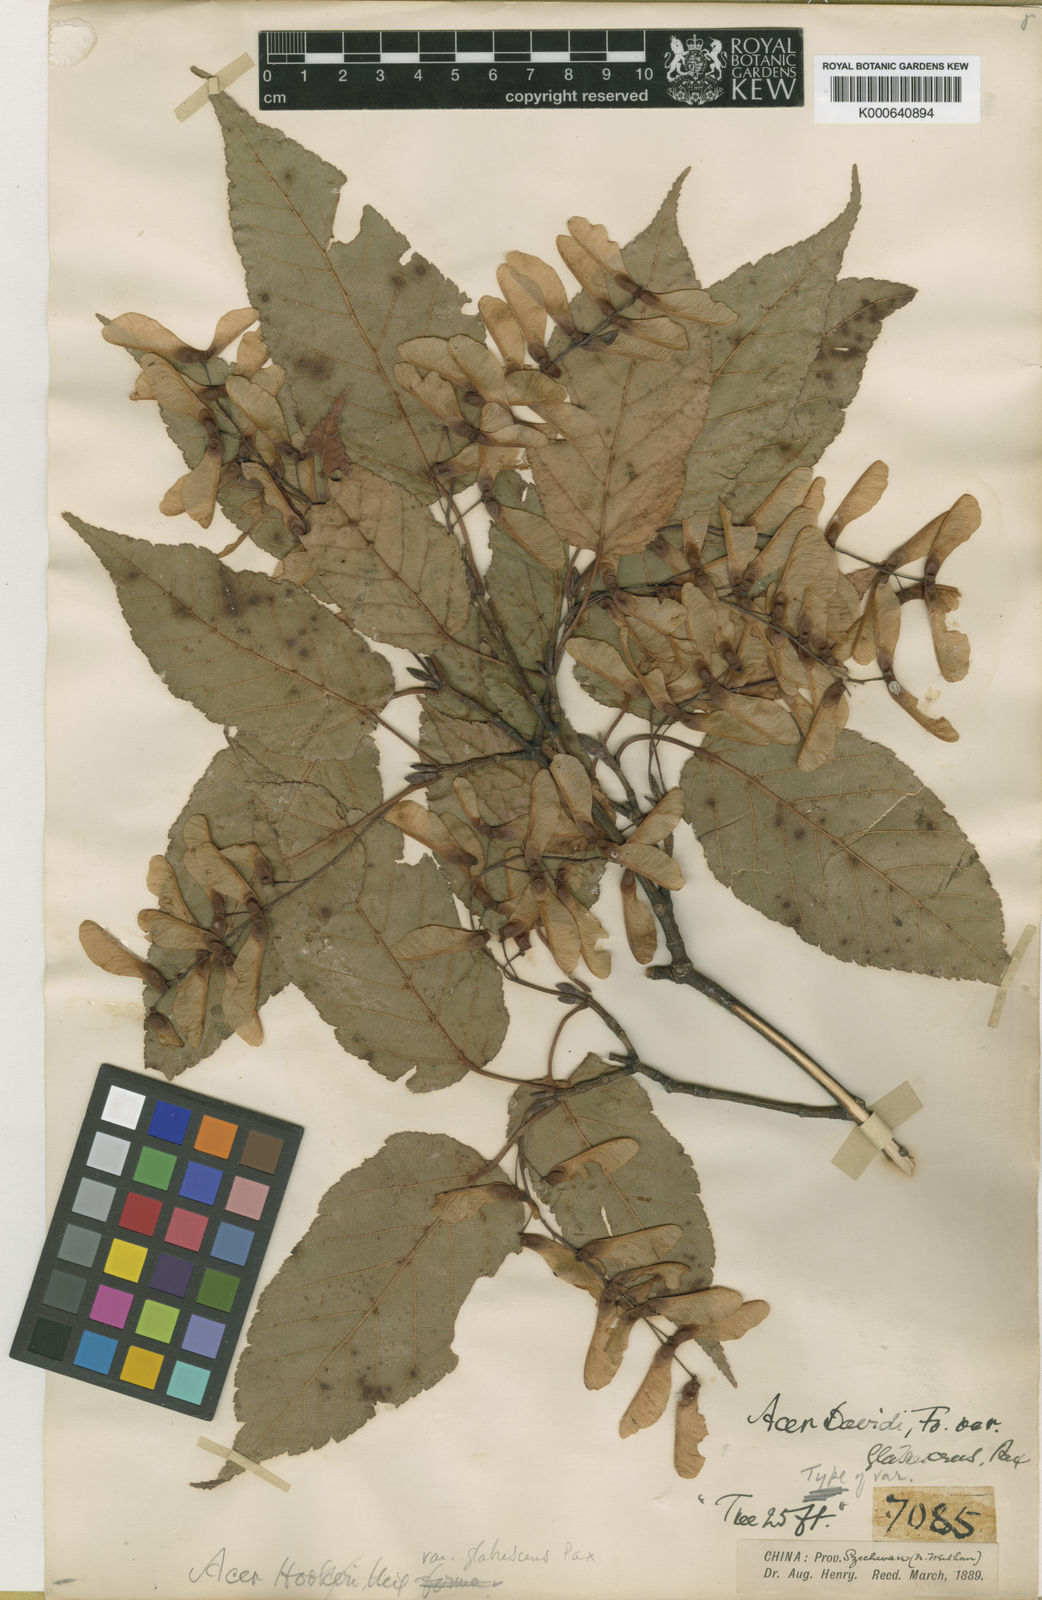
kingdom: Plantae
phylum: Tracheophyta
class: Magnoliopsida
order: Sapindales
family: Sapindaceae
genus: Acer
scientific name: Acer davidii
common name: Father david's maple
